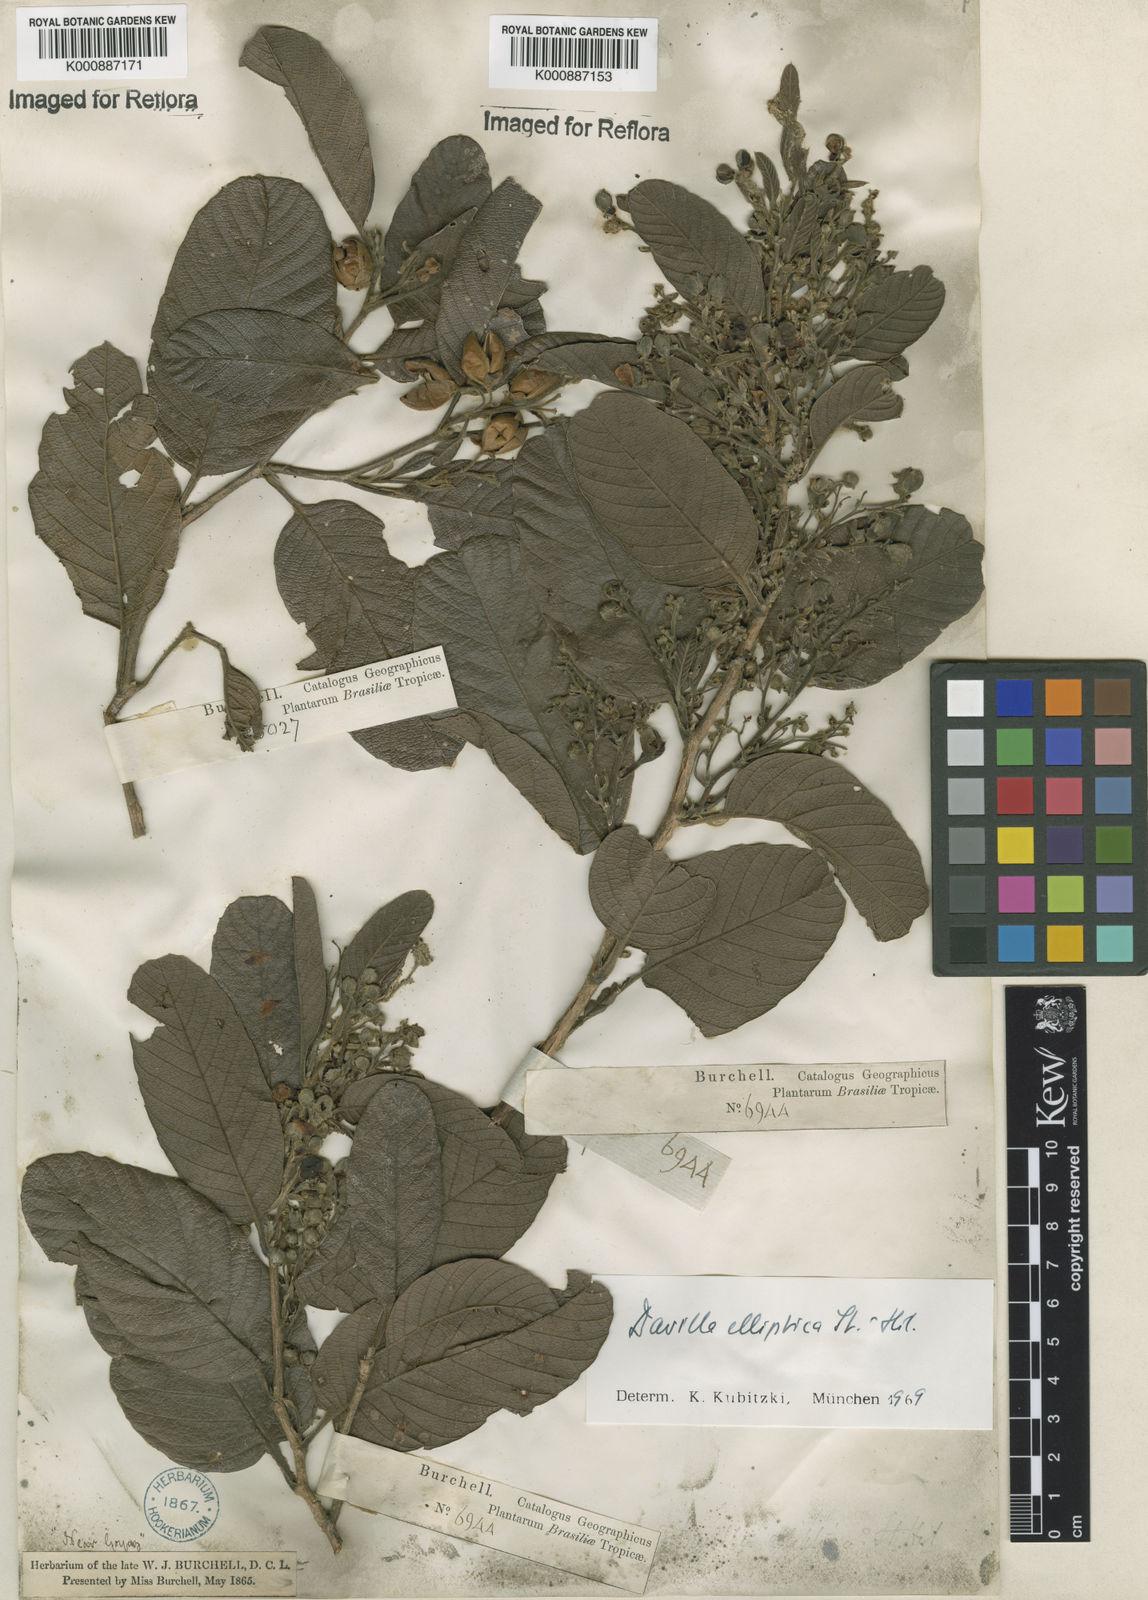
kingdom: Plantae
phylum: Tracheophyta
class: Magnoliopsida
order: Dilleniales
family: Dilleniaceae
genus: Davilla
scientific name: Davilla elliptica
